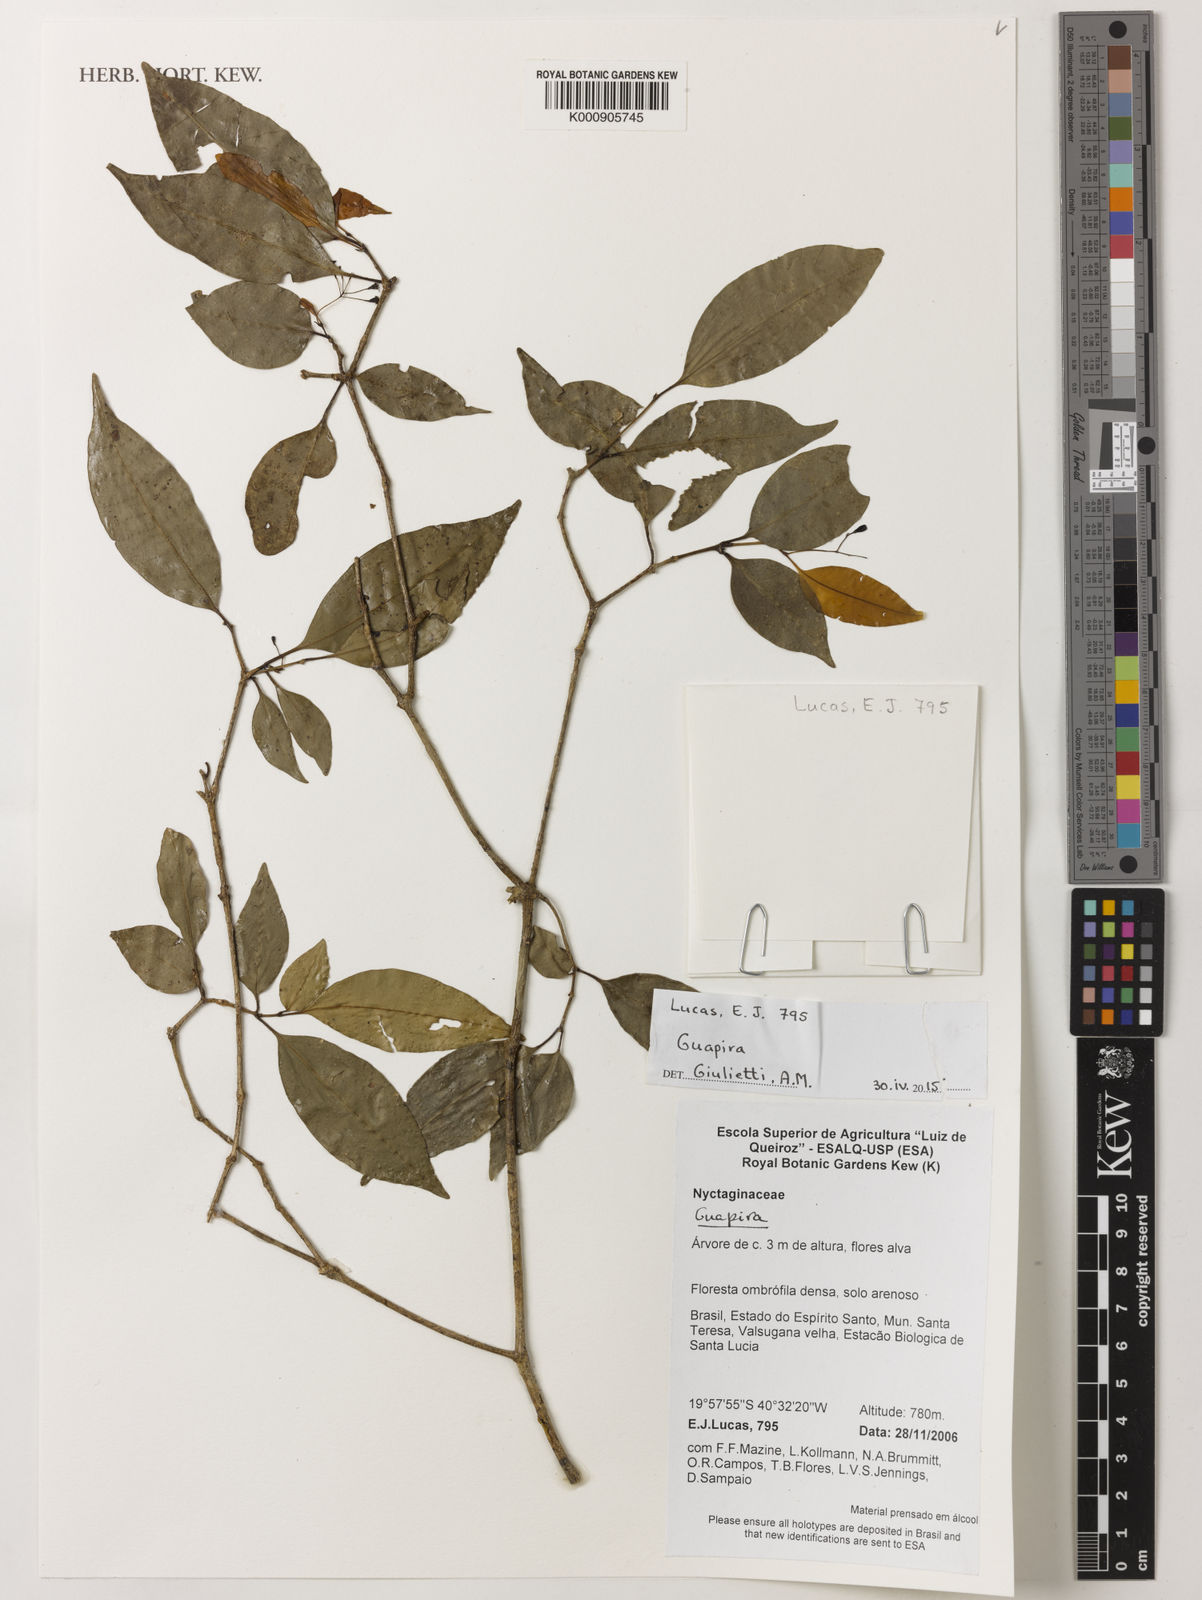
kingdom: Plantae
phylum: Tracheophyta
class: Magnoliopsida
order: Caryophyllales
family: Nyctaginaceae
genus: Guapira
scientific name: Guapira
